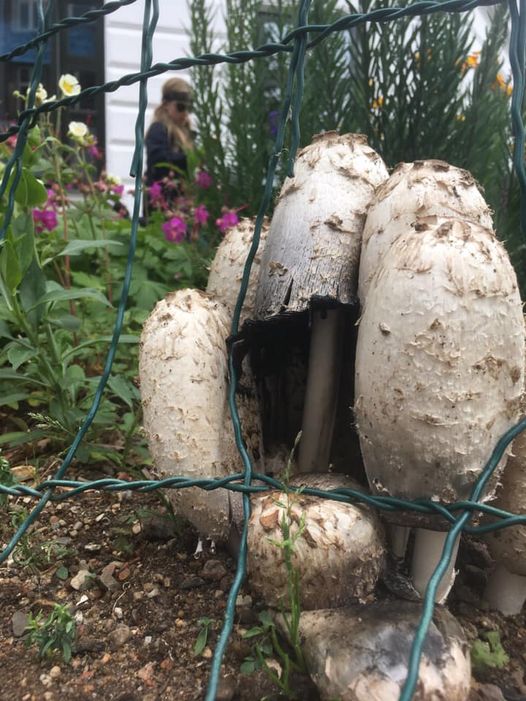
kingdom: Fungi
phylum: Basidiomycota
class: Agaricomycetes
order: Agaricales
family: Agaricaceae
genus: Coprinus
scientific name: Coprinus comatus
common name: stor parykhat
